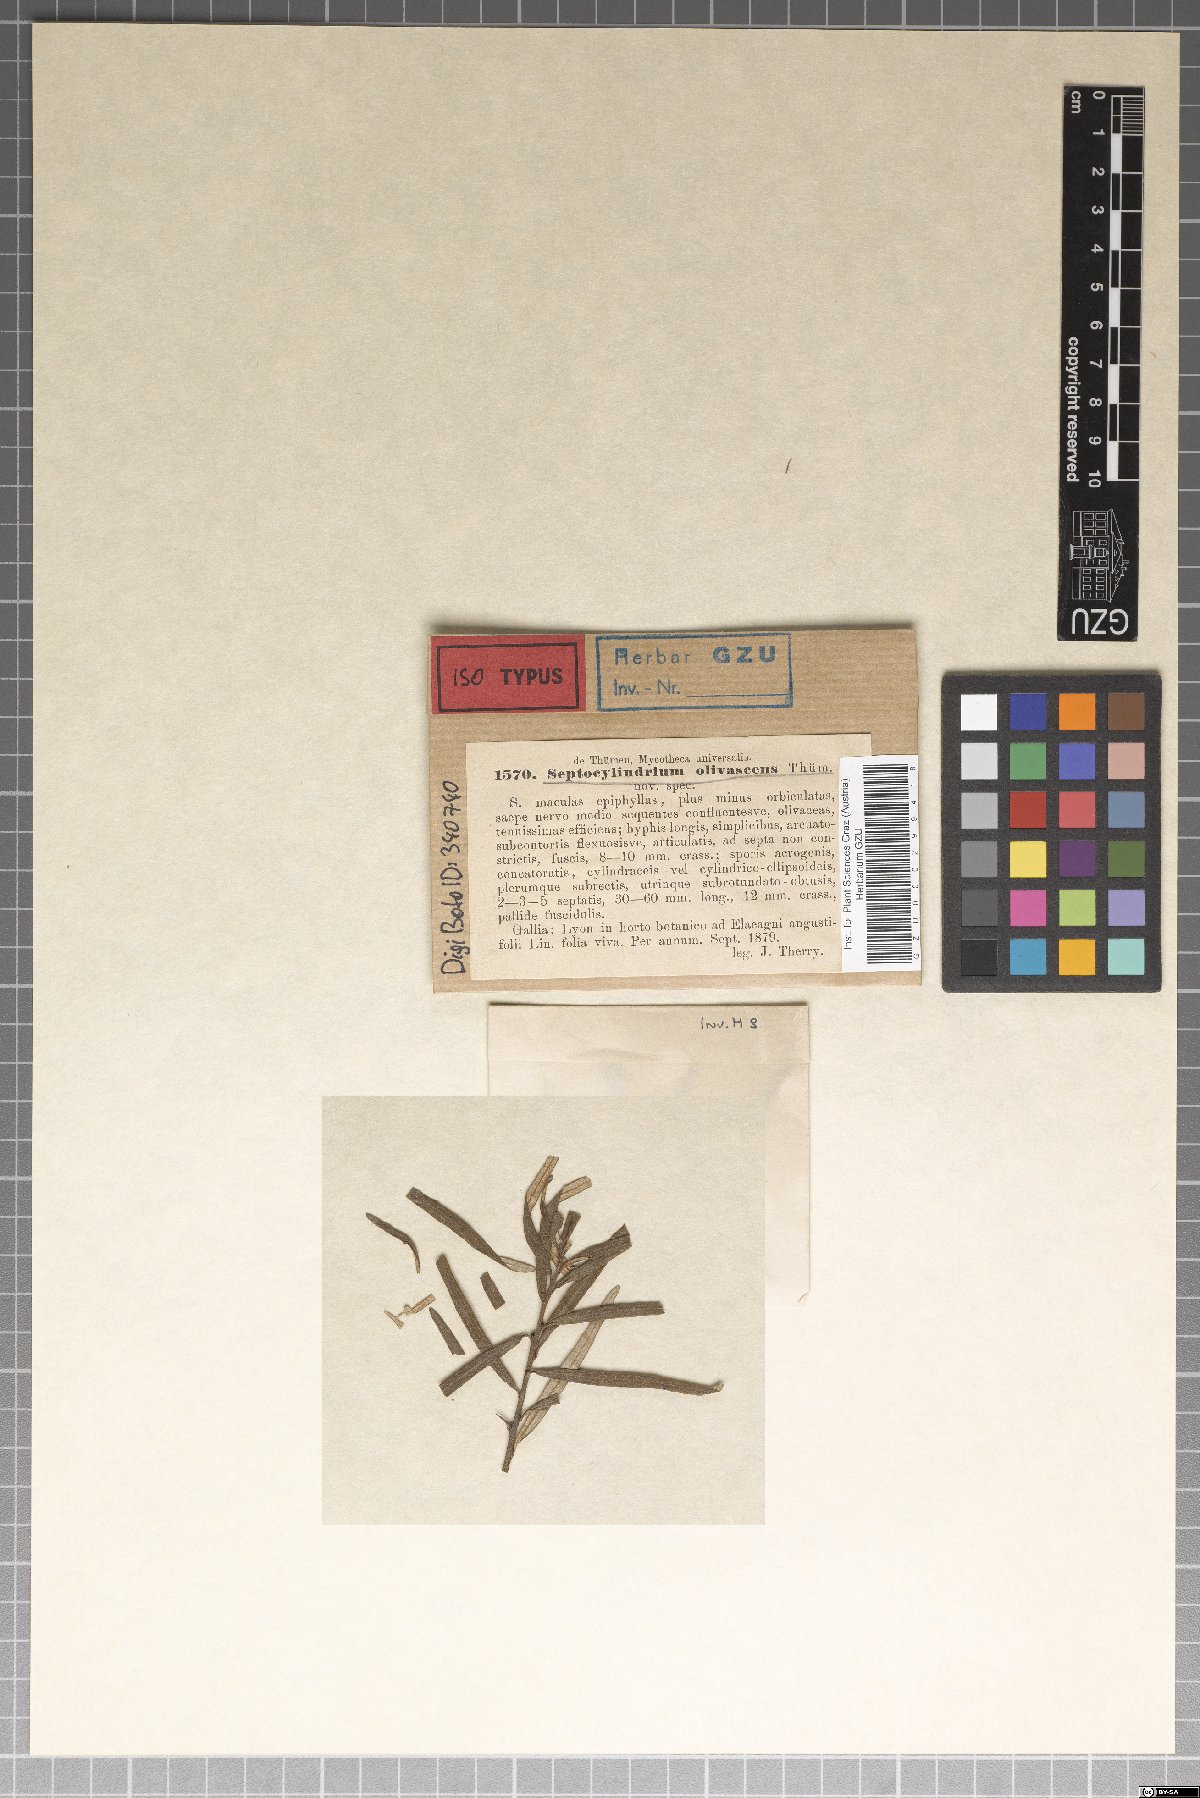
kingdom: Fungi
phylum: Ascomycota
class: Dothideomycetes
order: Pleosporales
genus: Sporidesmium
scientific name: Sporidesmium olivascens
